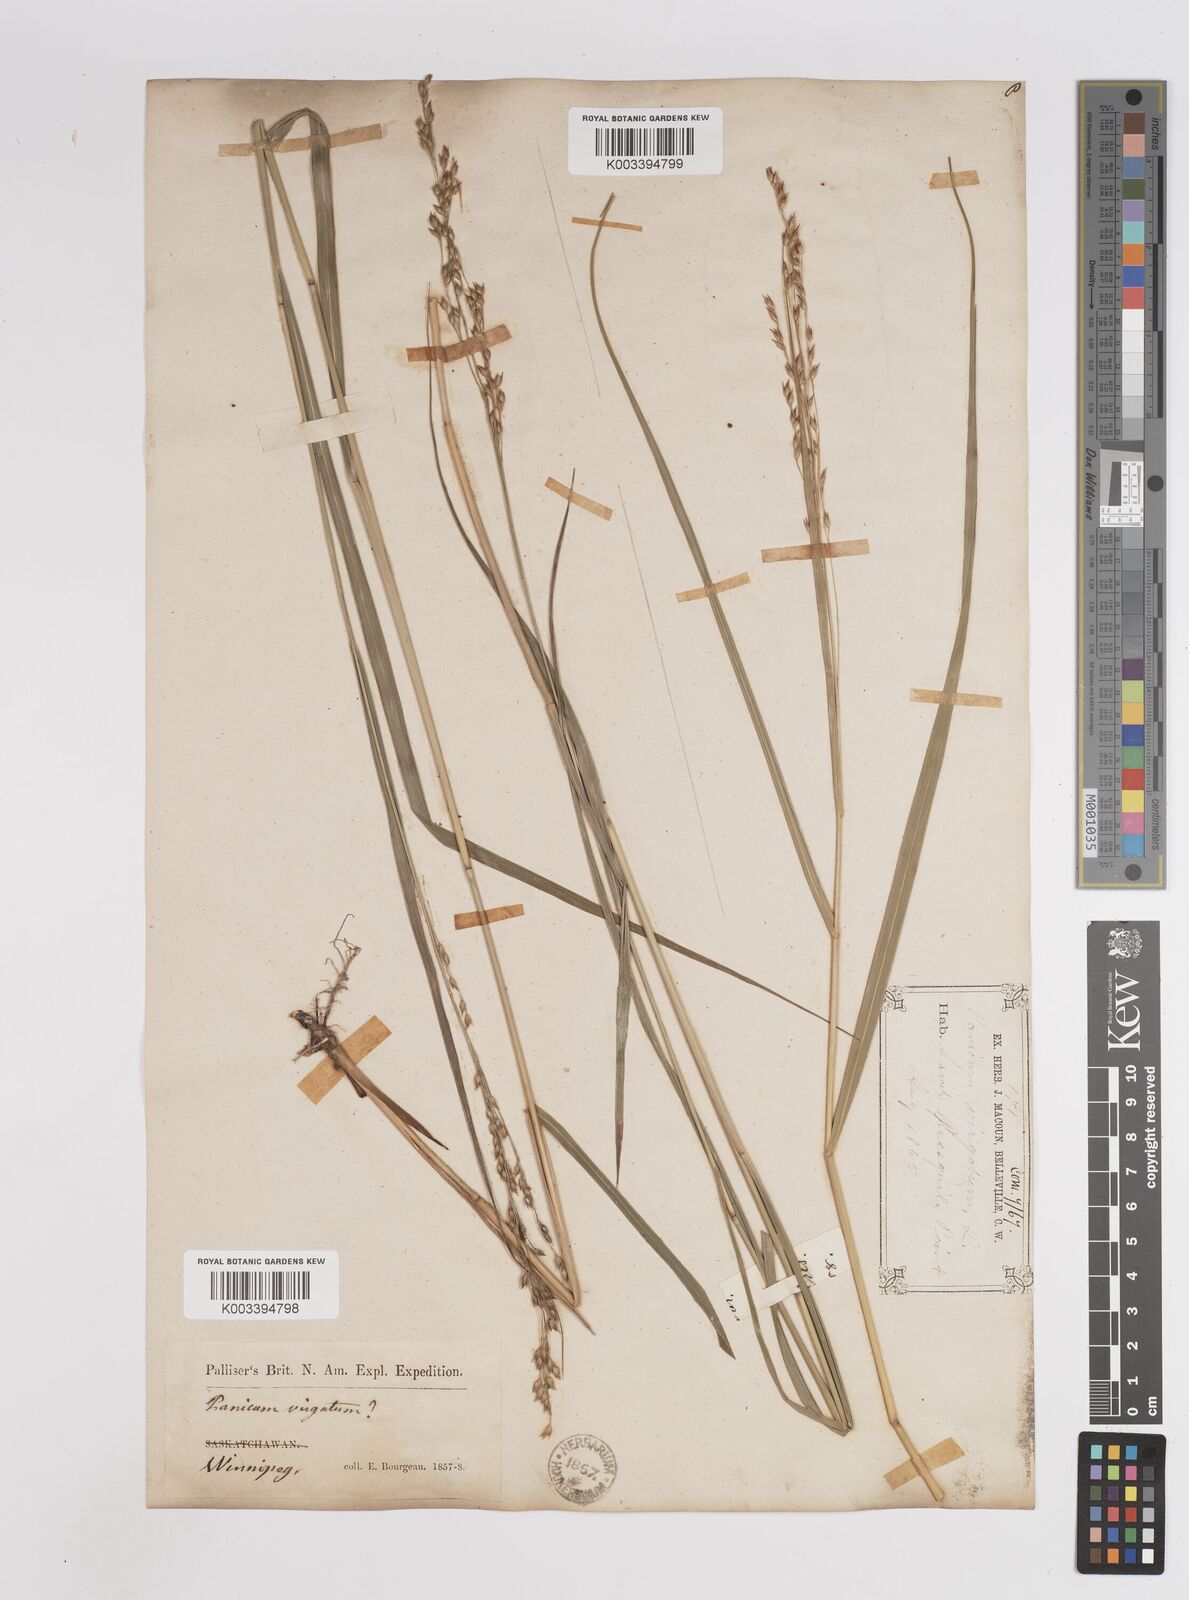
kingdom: Plantae
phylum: Tracheophyta
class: Liliopsida
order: Poales
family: Poaceae
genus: Panicum
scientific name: Panicum virgatum
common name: Switchgrass
